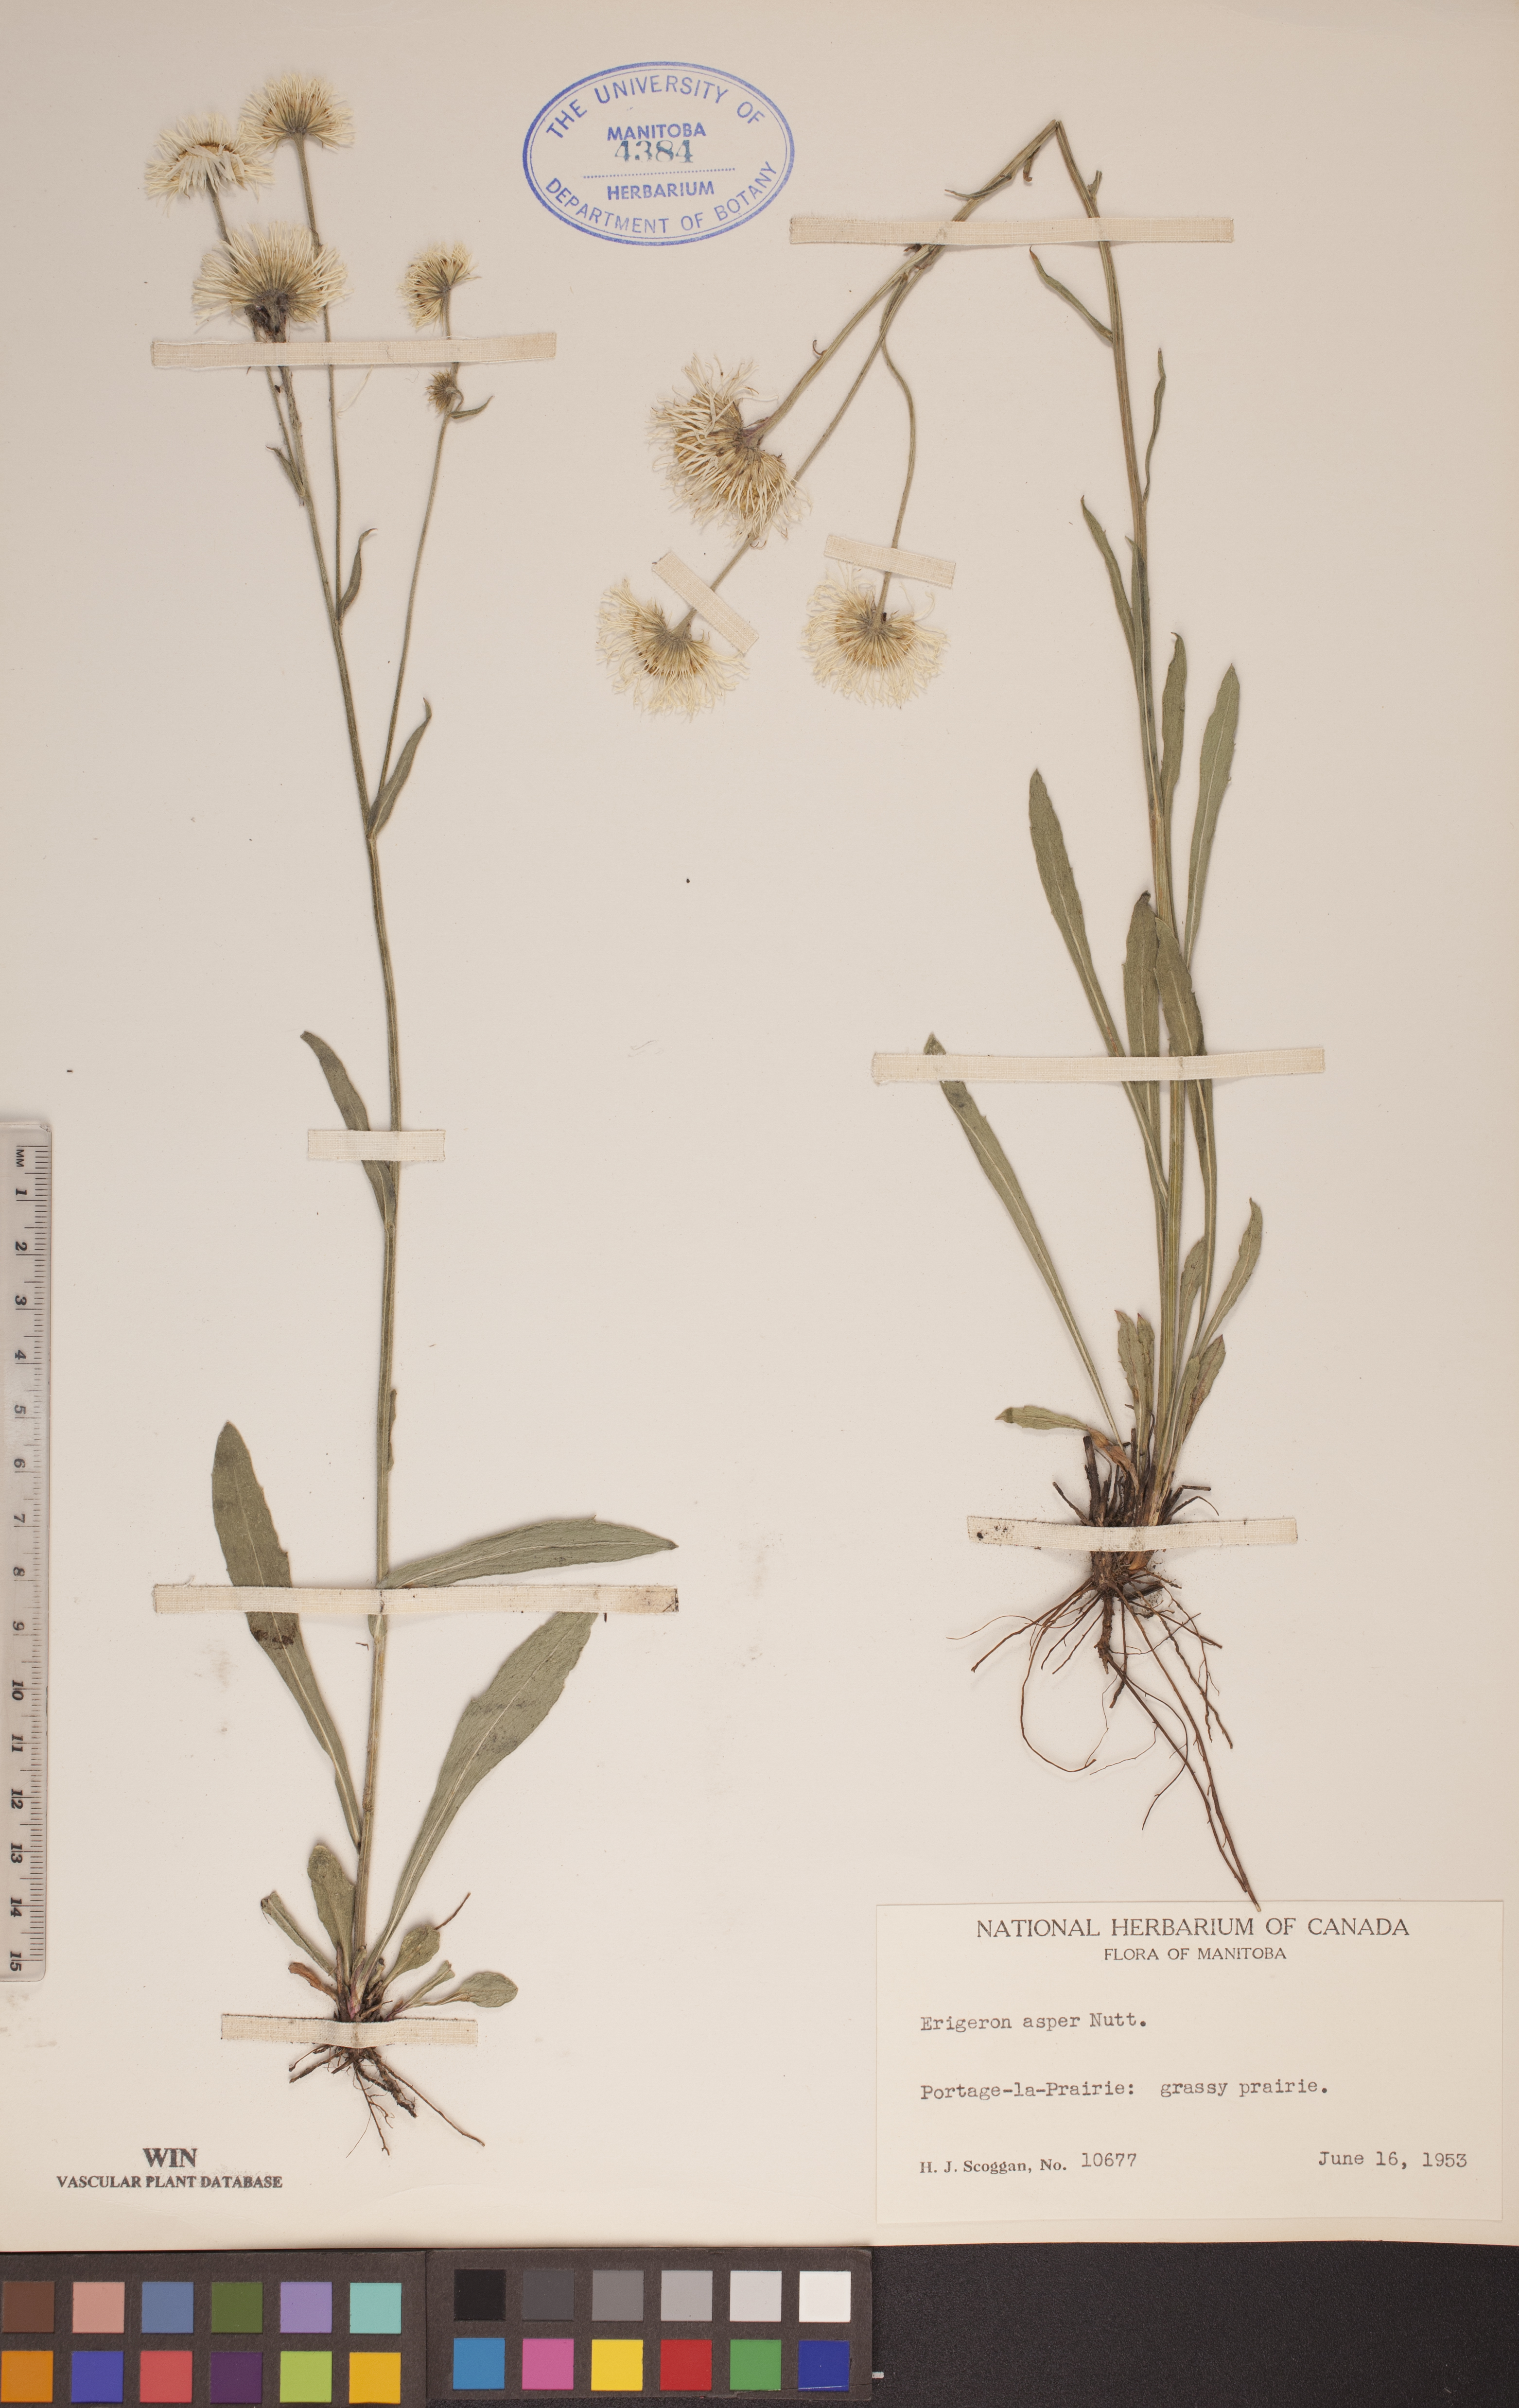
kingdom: Plantae
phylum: Tracheophyta
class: Magnoliopsida
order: Asterales
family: Asteraceae
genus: Erigeron
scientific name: Erigeron glabellus
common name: Smooth fleabane
